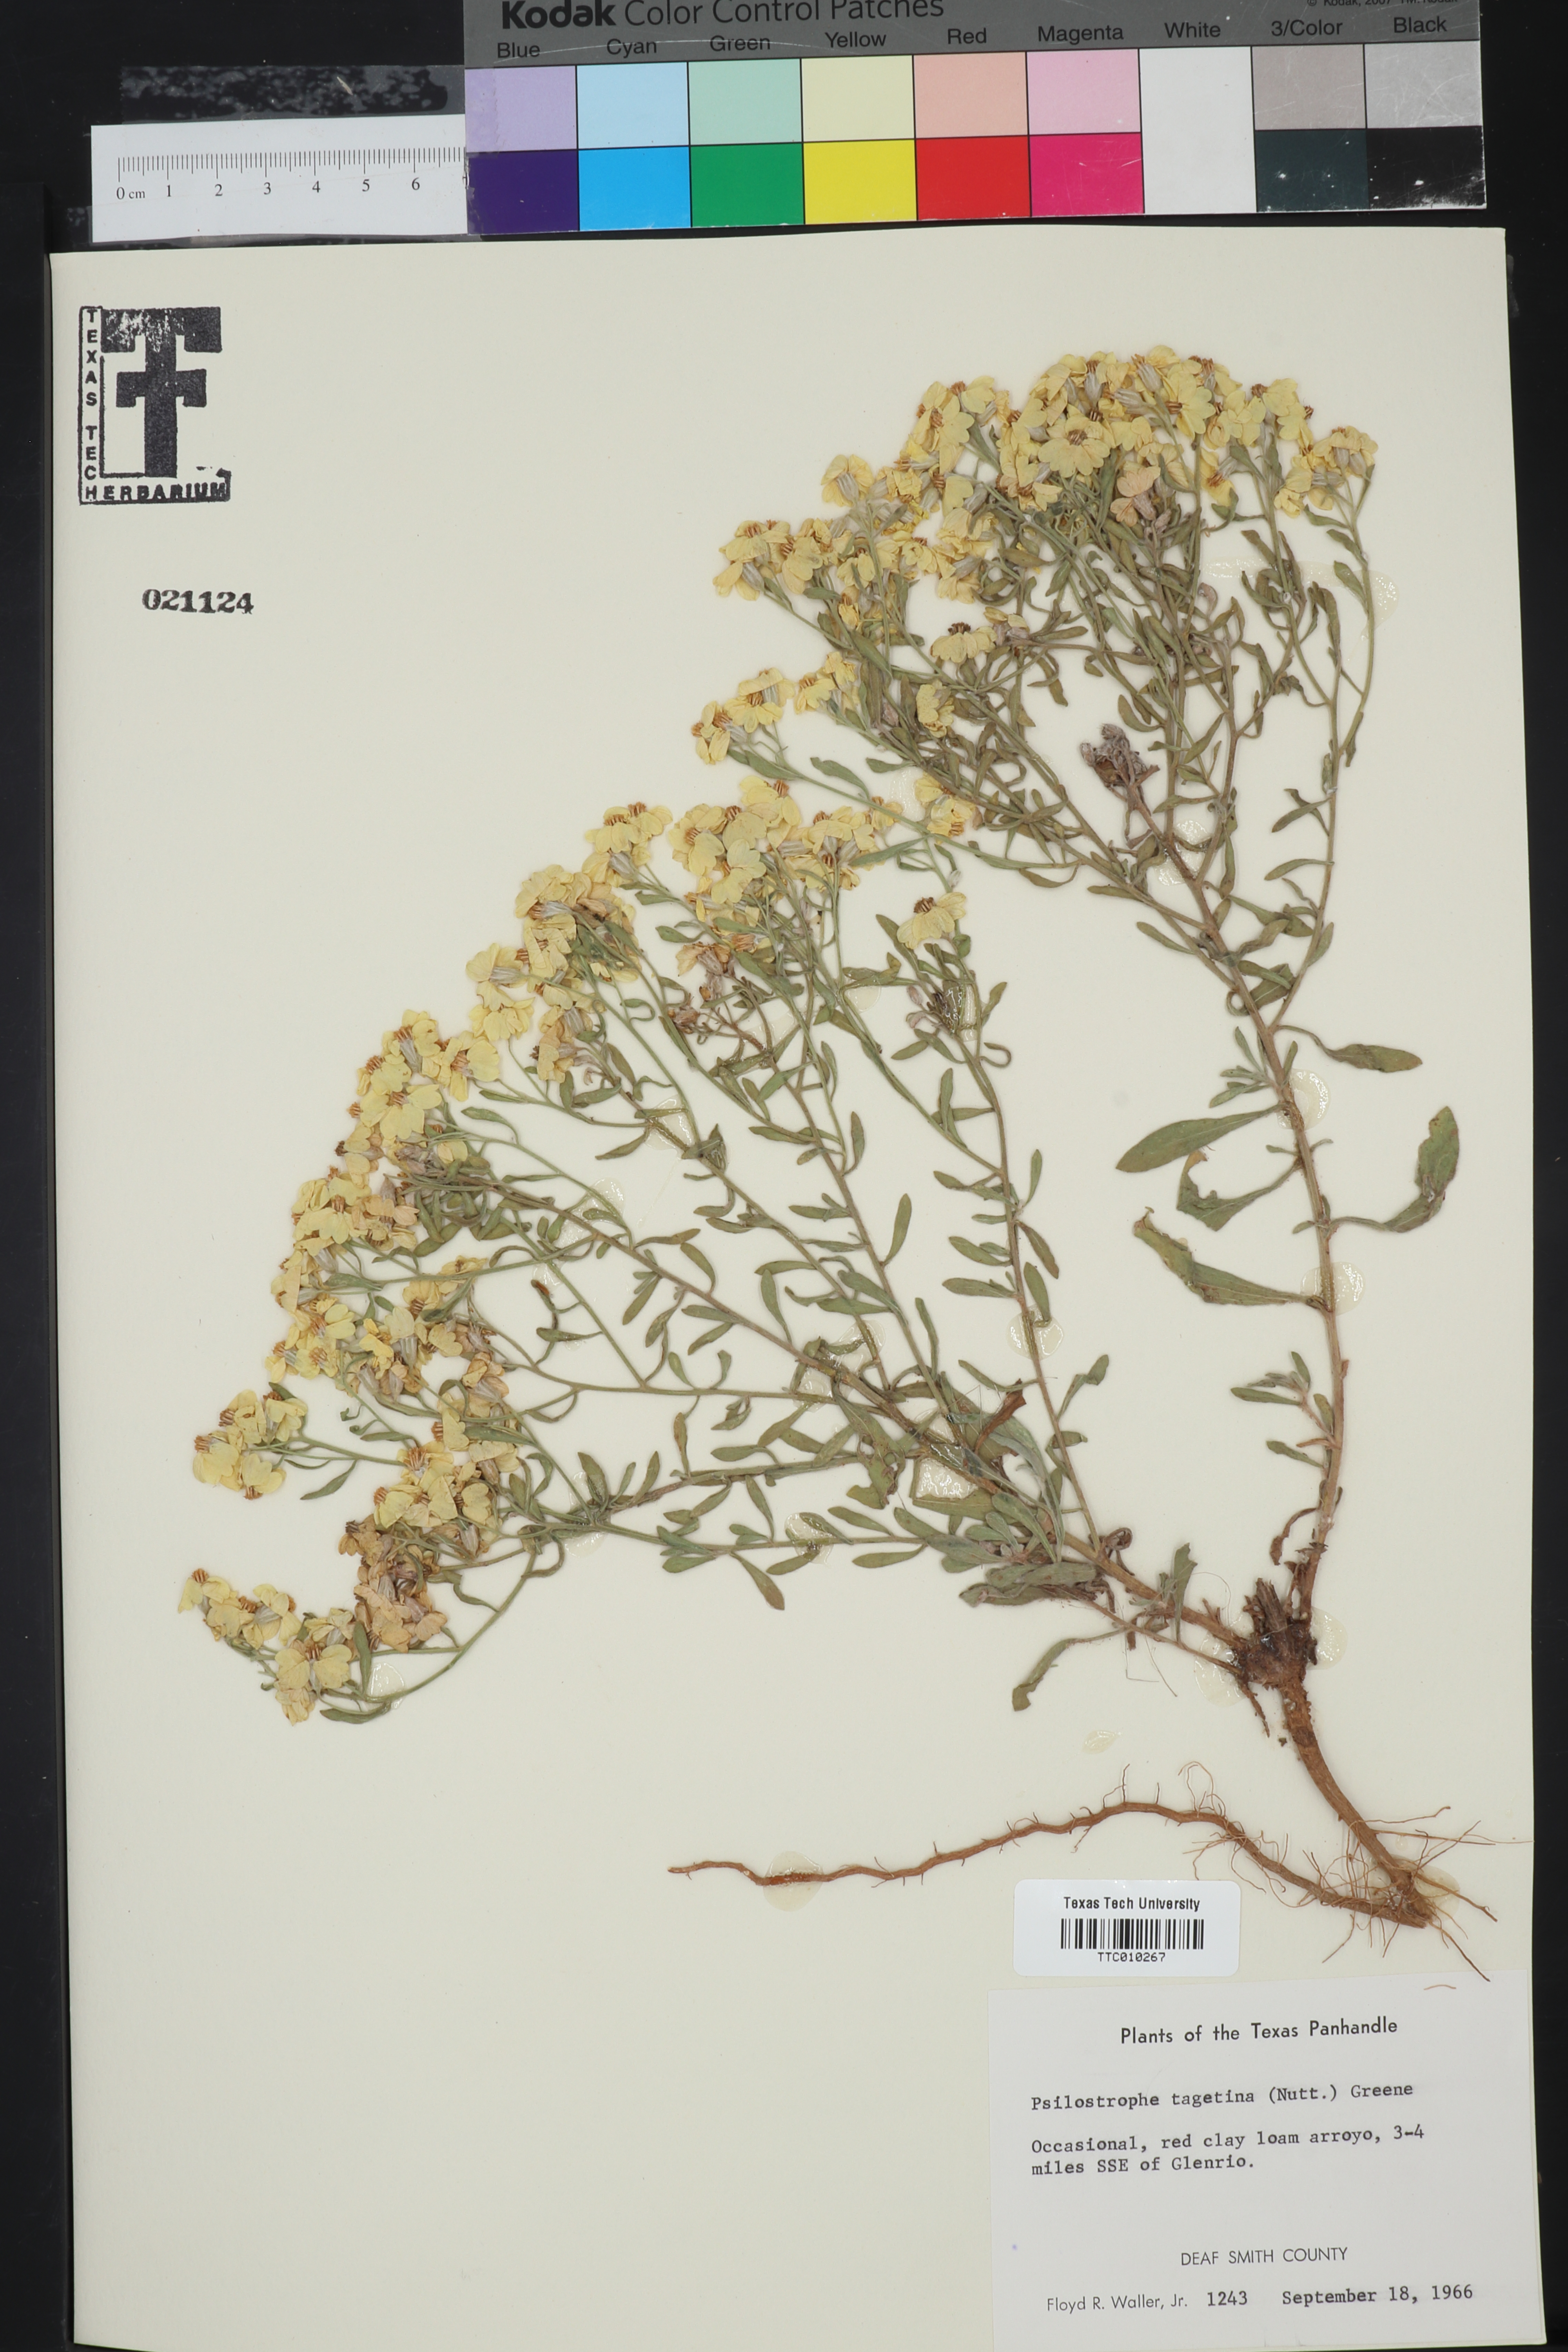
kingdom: Plantae
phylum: Tracheophyta
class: Magnoliopsida
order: Asterales
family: Asteraceae
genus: Psilostrophe
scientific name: Psilostrophe tagetina
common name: Marigold paper-flower
